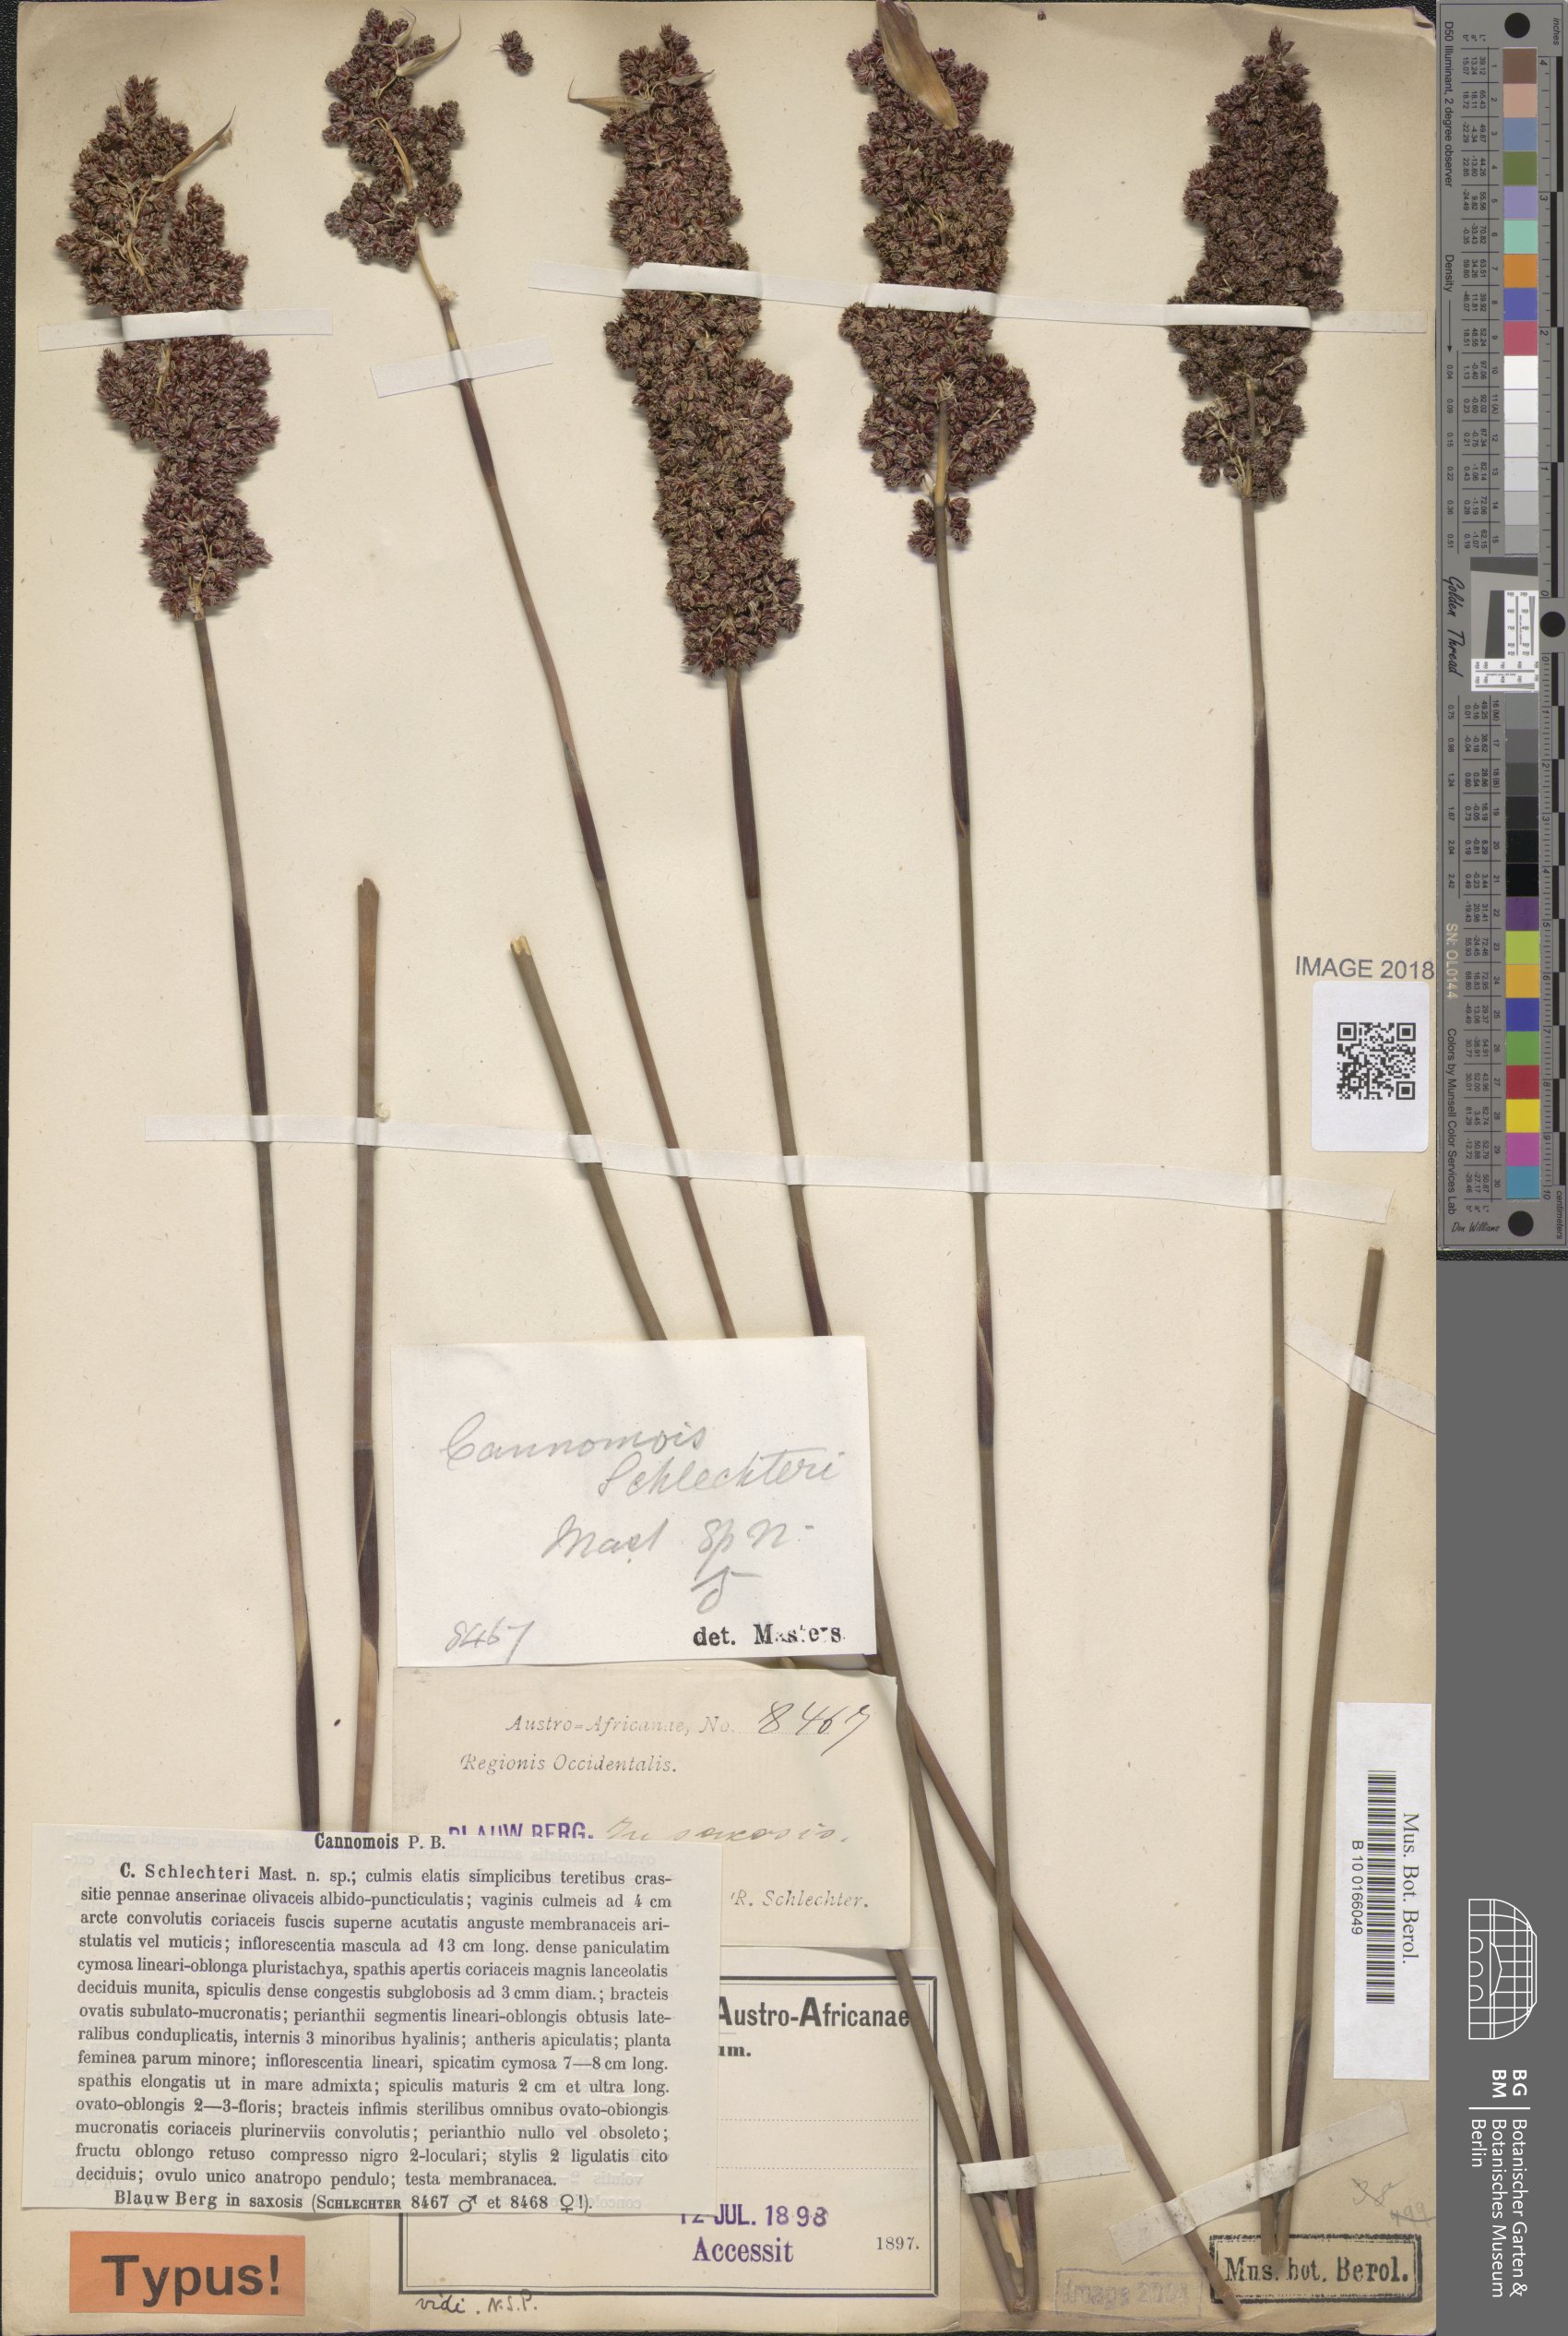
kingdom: Plantae
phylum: Tracheophyta
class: Liliopsida
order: Poales
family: Restionaceae
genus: Cannomois
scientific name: Cannomois parviflora
